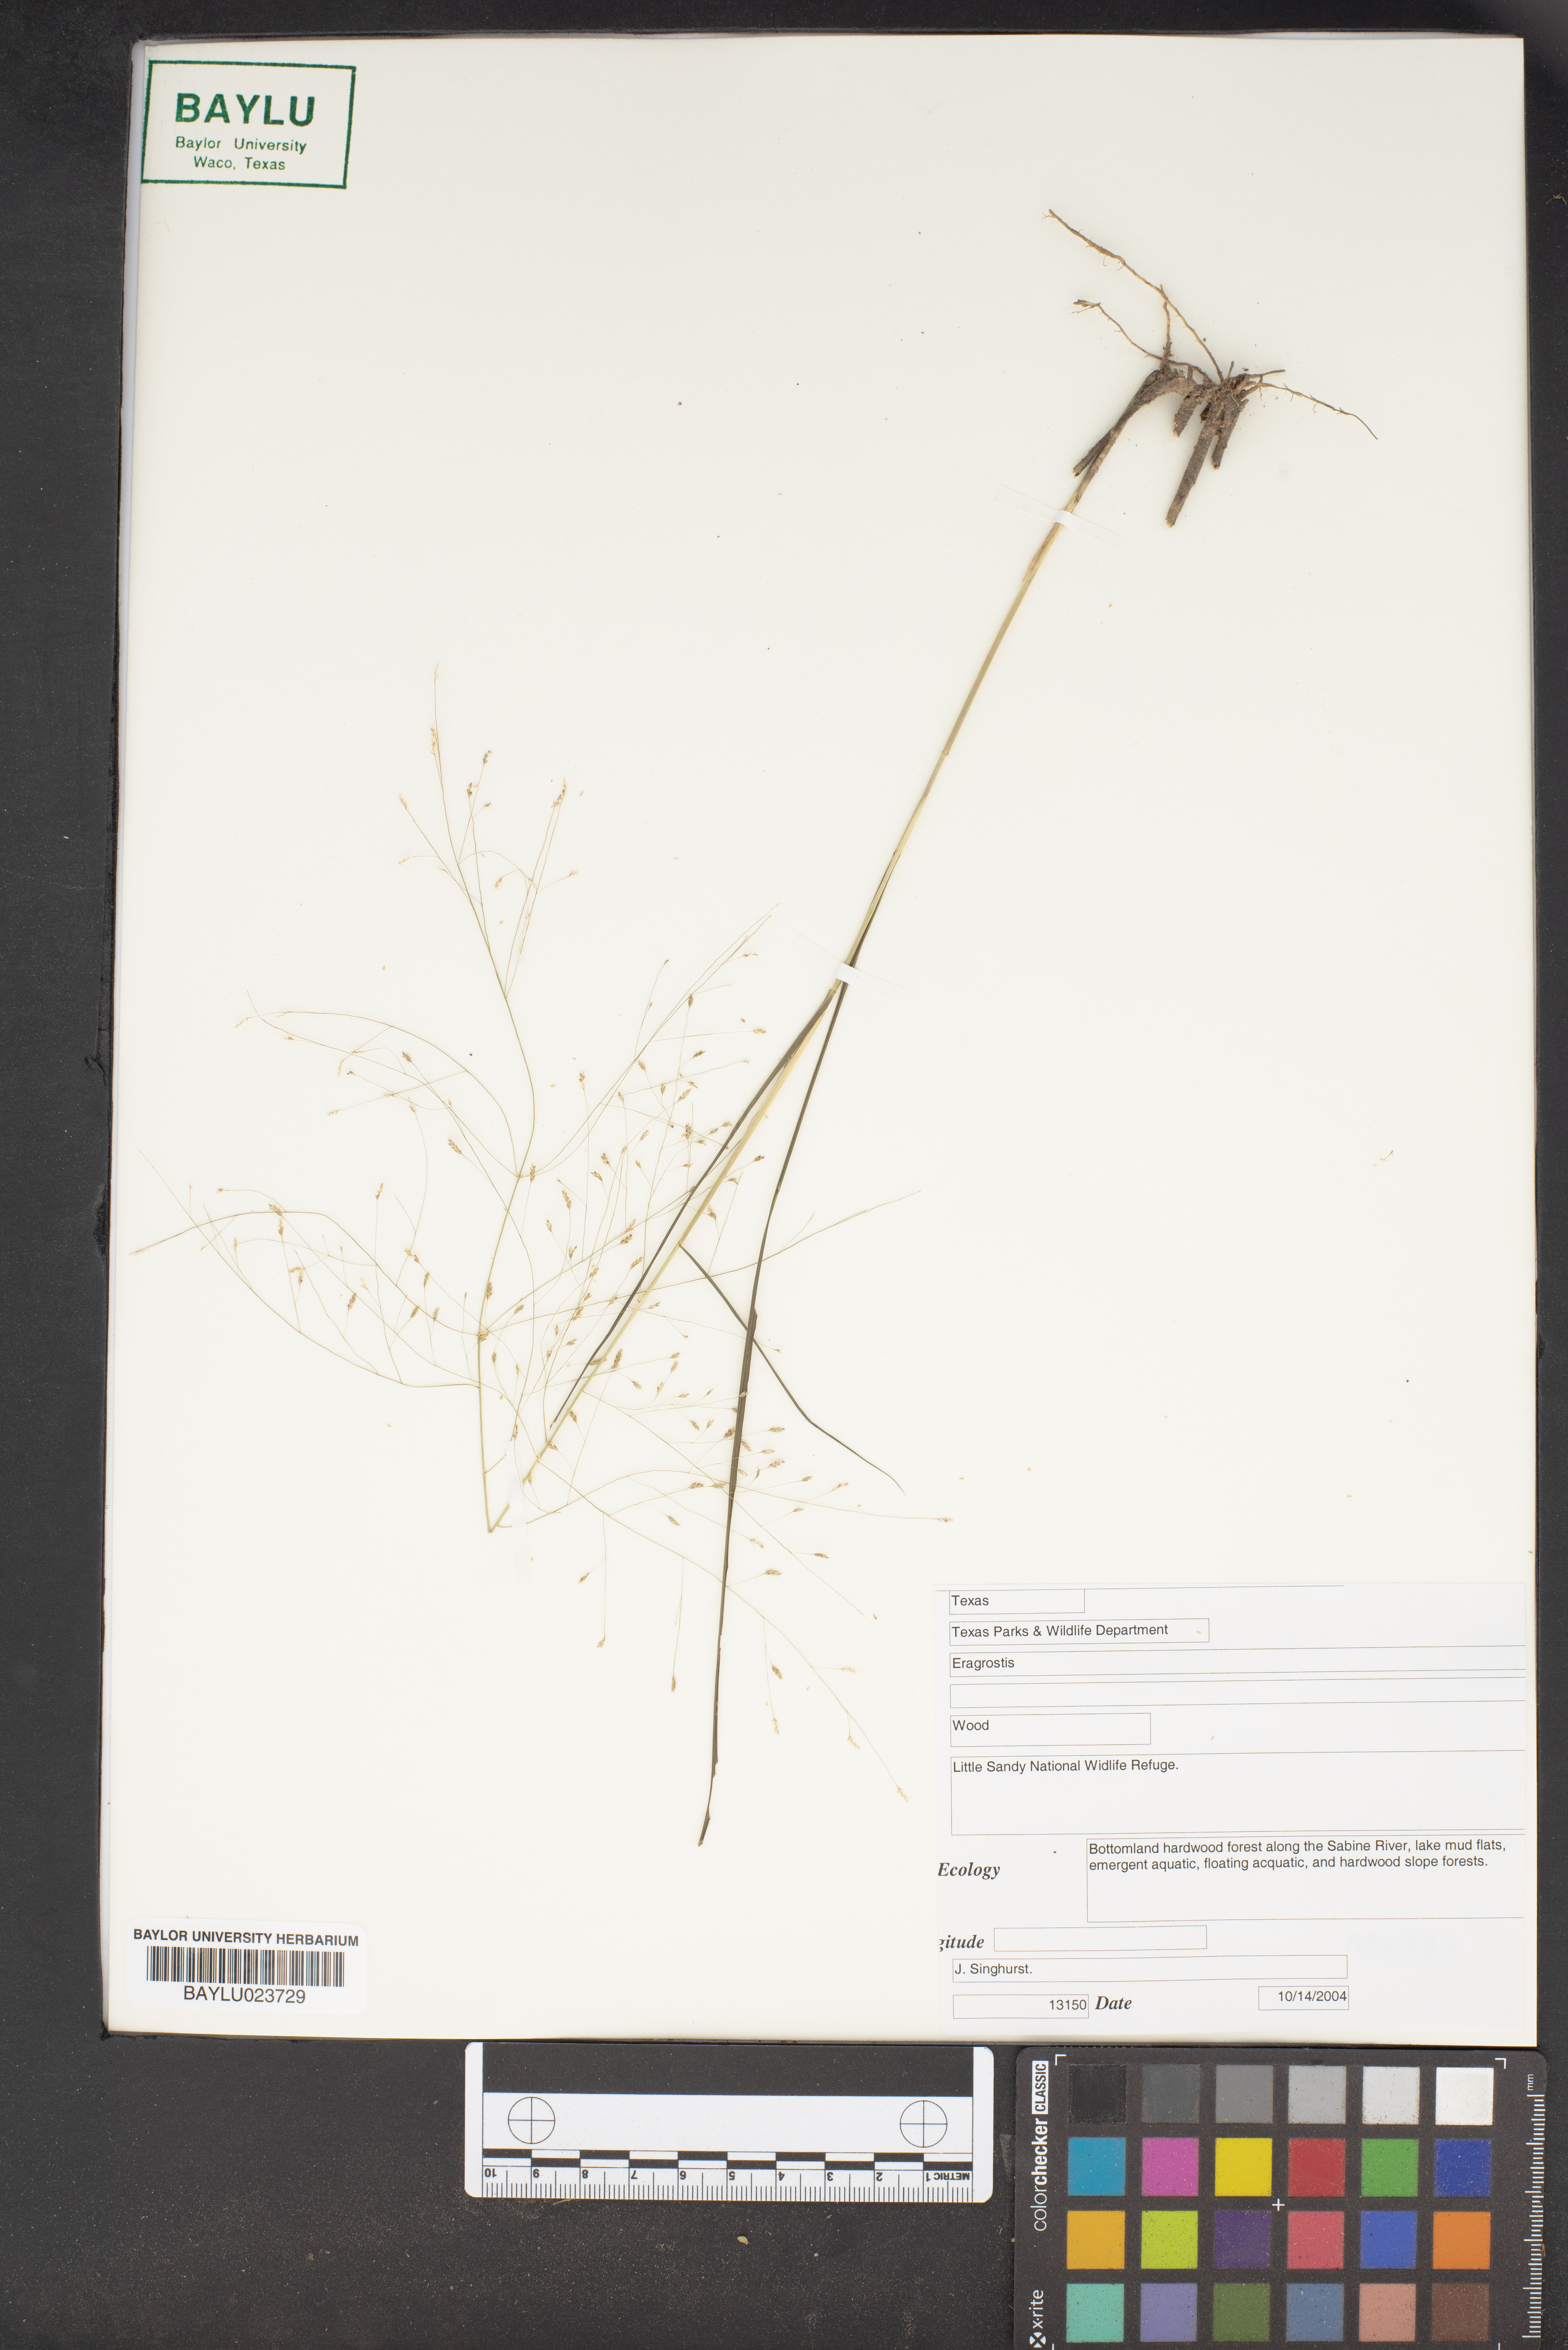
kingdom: Plantae
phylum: Tracheophyta
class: Liliopsida
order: Poales
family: Poaceae
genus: Eragrostis
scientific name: Eragrostis
